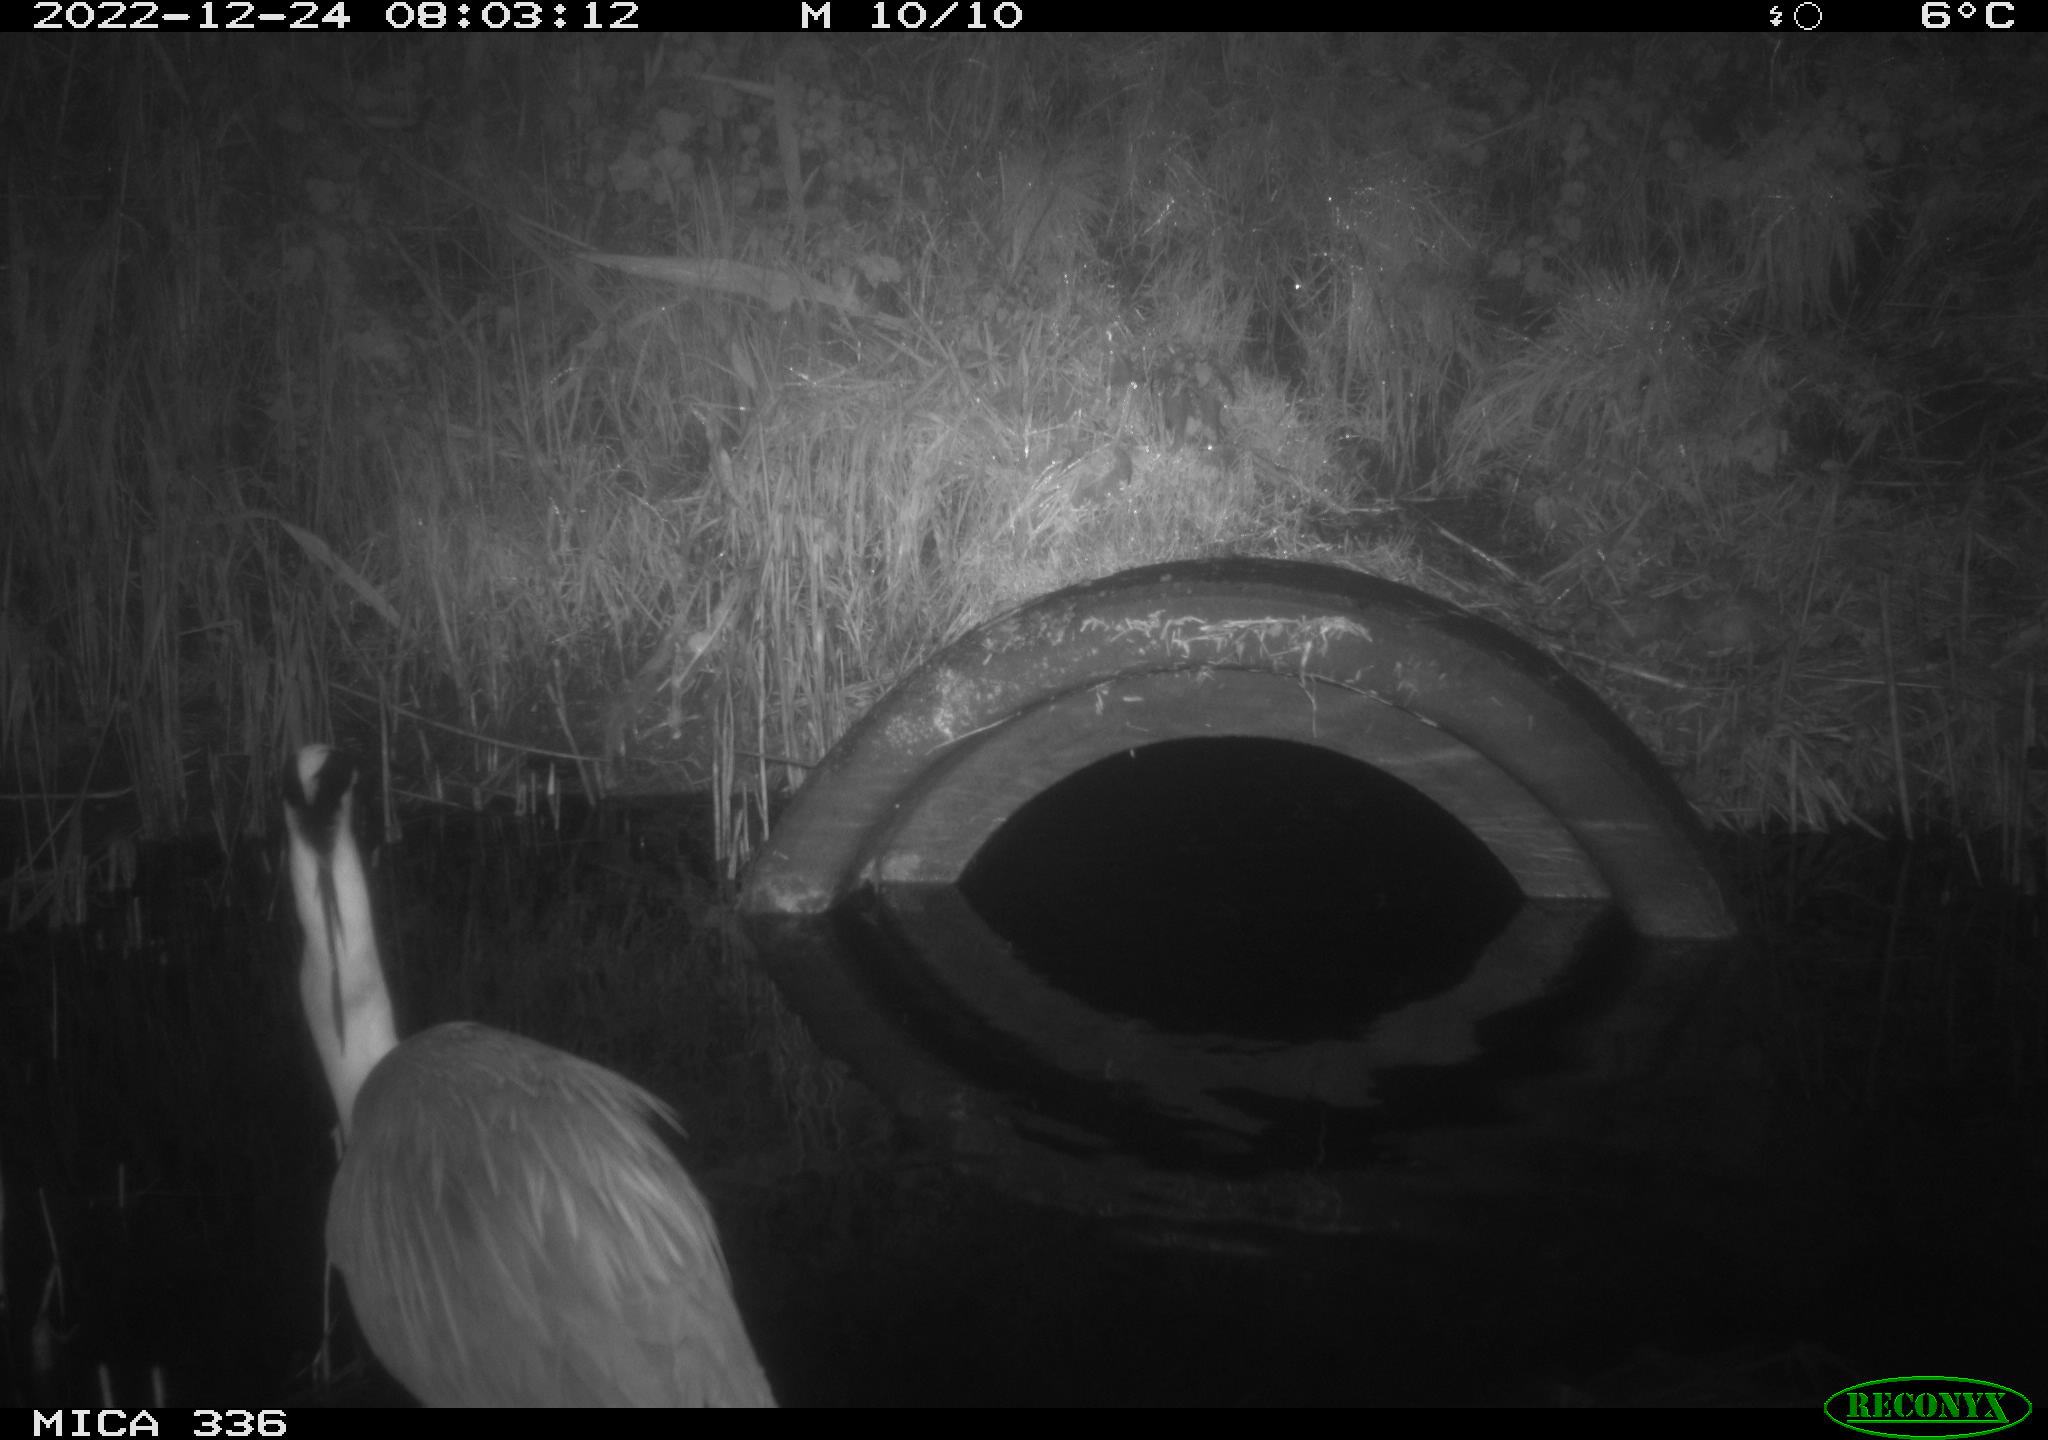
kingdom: Animalia
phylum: Chordata
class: Aves
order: Pelecaniformes
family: Ardeidae
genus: Ardea
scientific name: Ardea cinerea
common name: Grey heron
